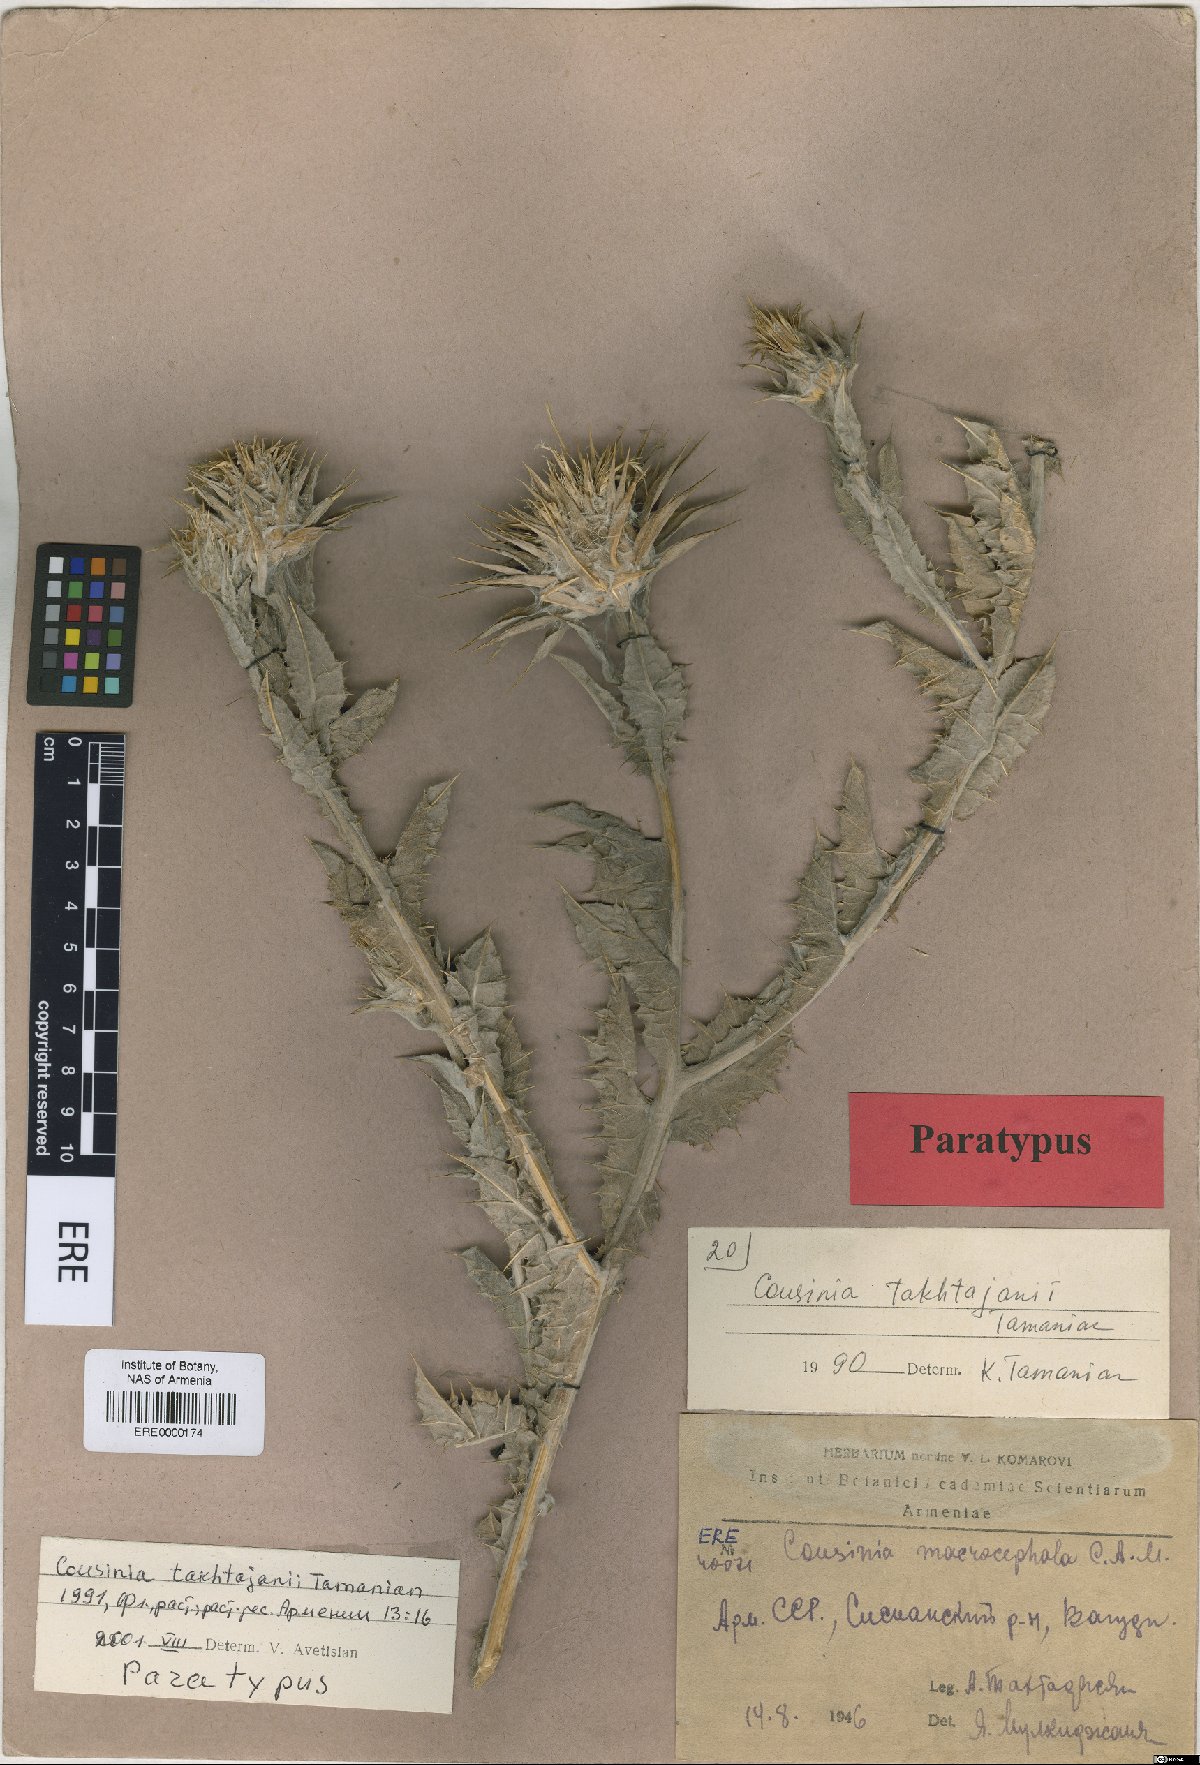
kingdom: Plantae
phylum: Tracheophyta
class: Magnoliopsida
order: Asterales
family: Asteraceae
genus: Cousinia
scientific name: Cousinia macrocephala
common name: Macrocephalous cousinia
